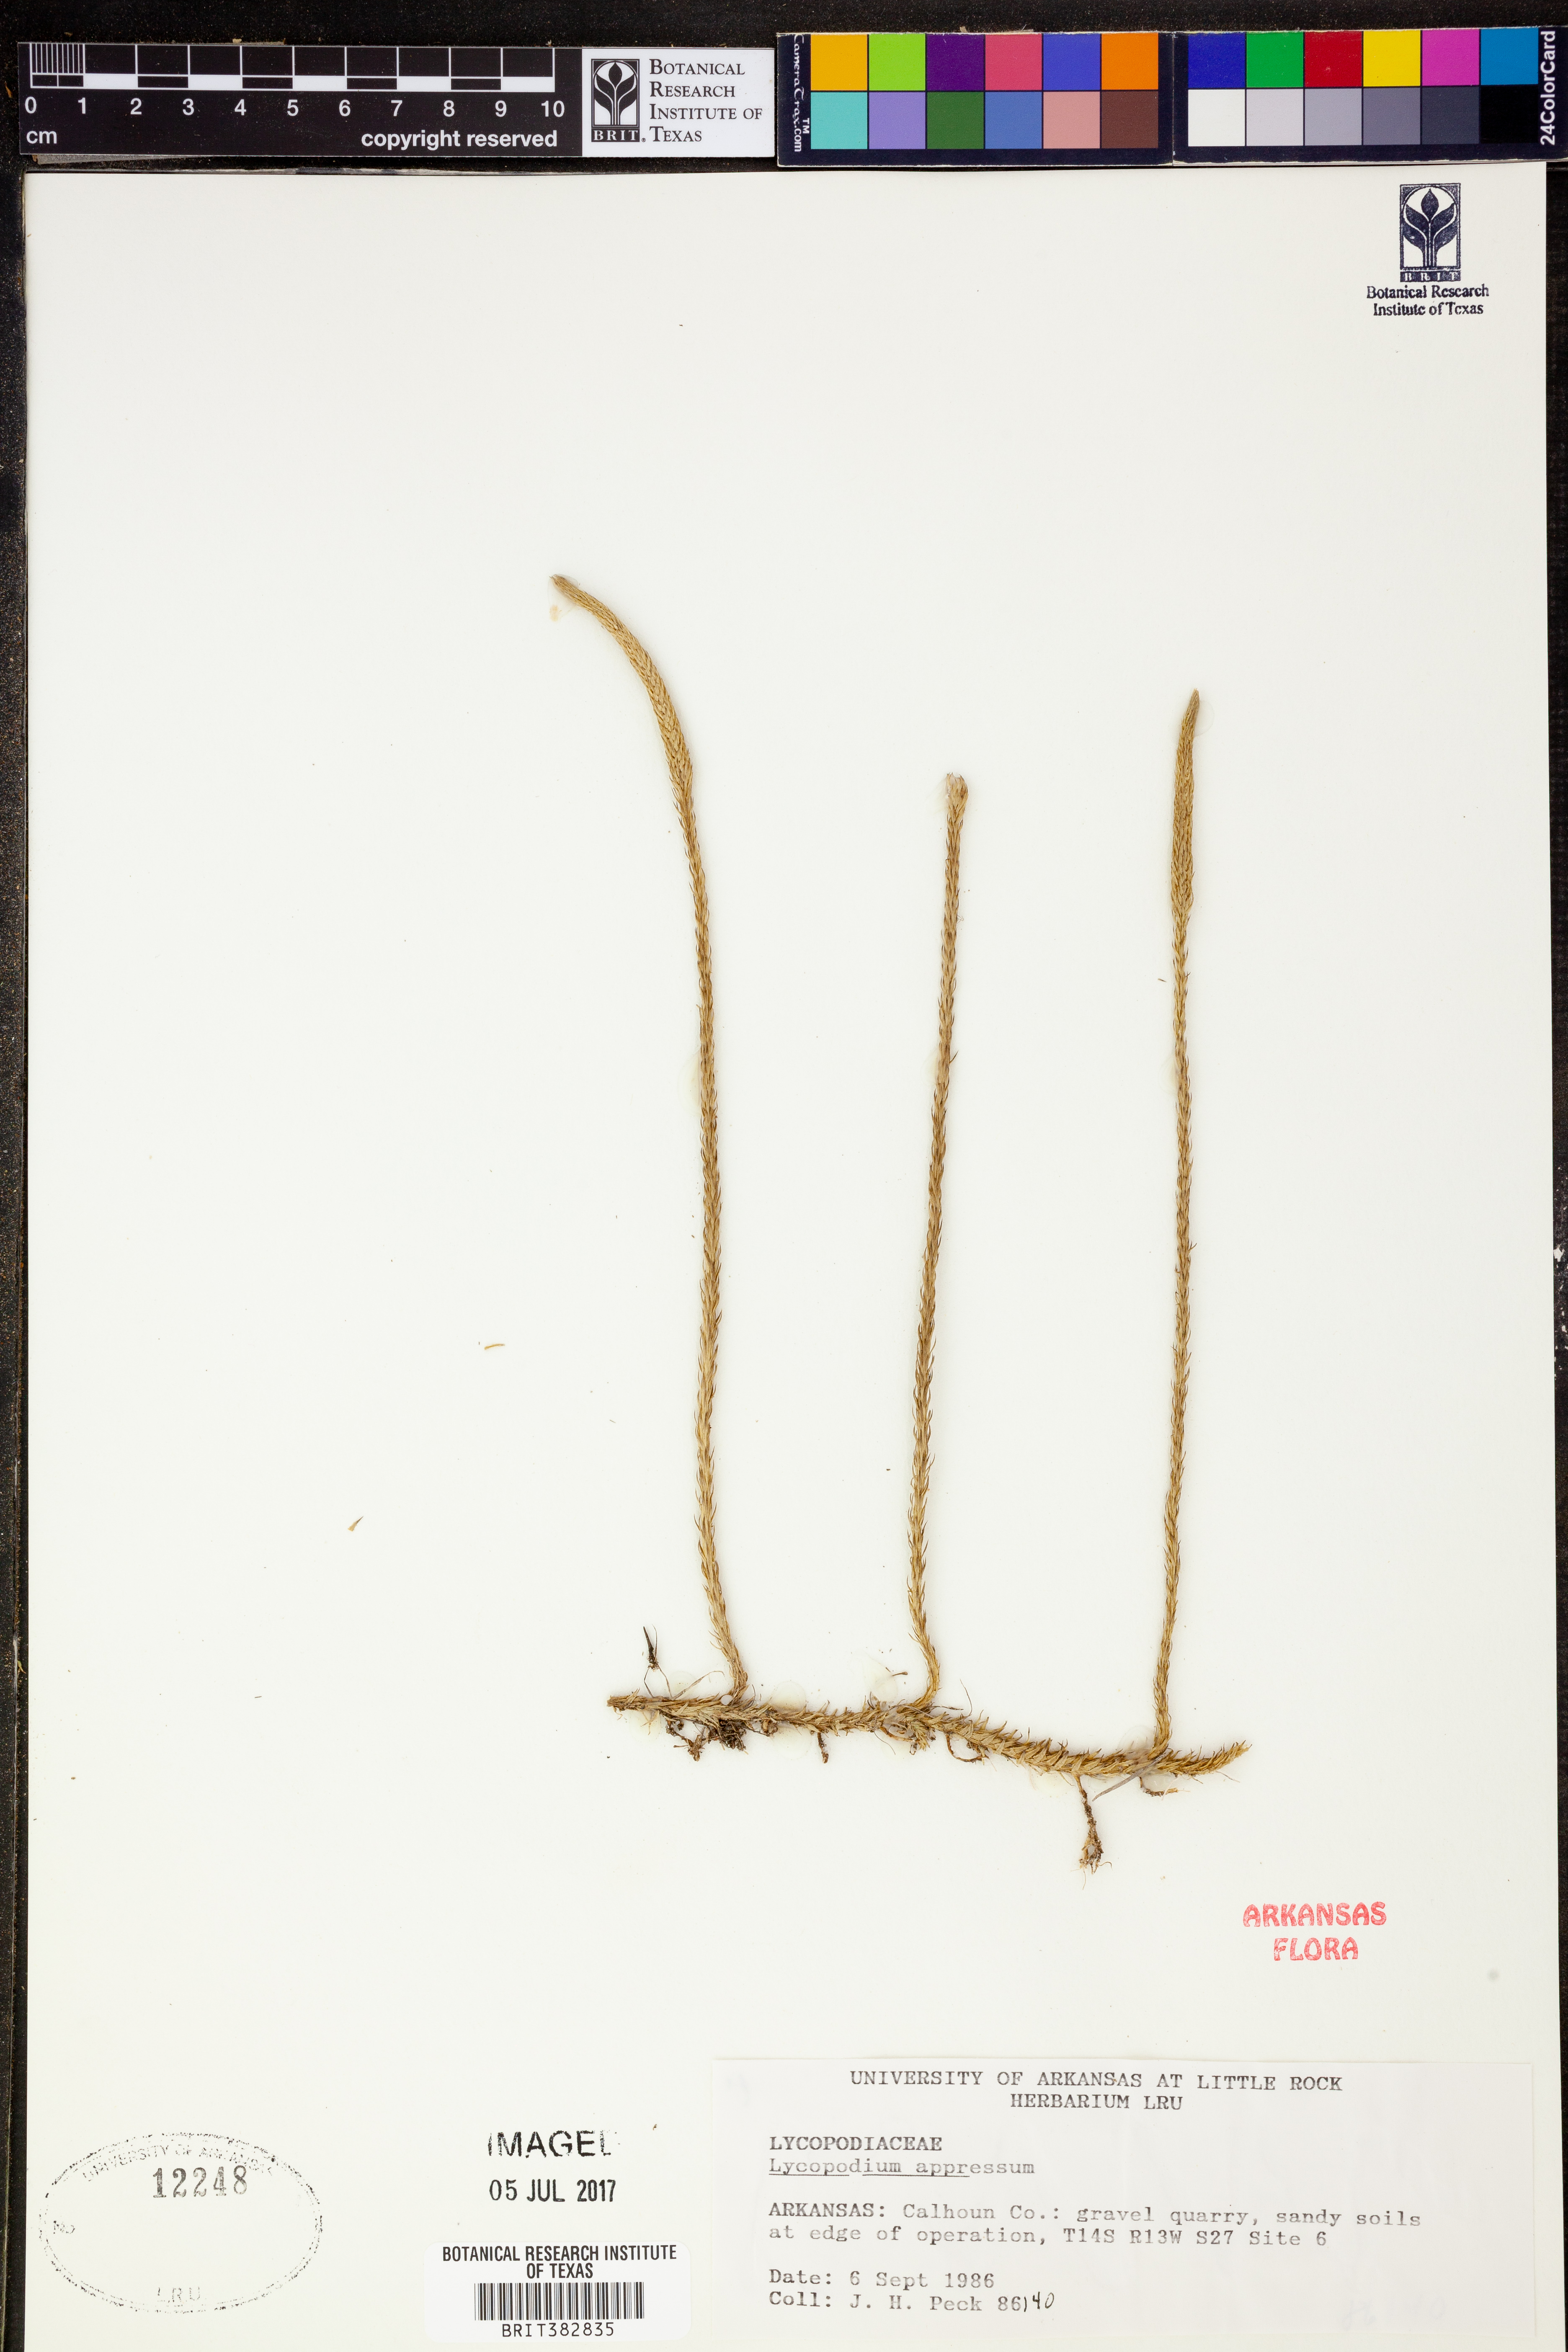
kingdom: Plantae
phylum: Tracheophyta
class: Lycopodiopsida
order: Lycopodiales
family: Lycopodiaceae
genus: Lycopodiella
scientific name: Lycopodiella appressa
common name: Appressed bog clubmoss
